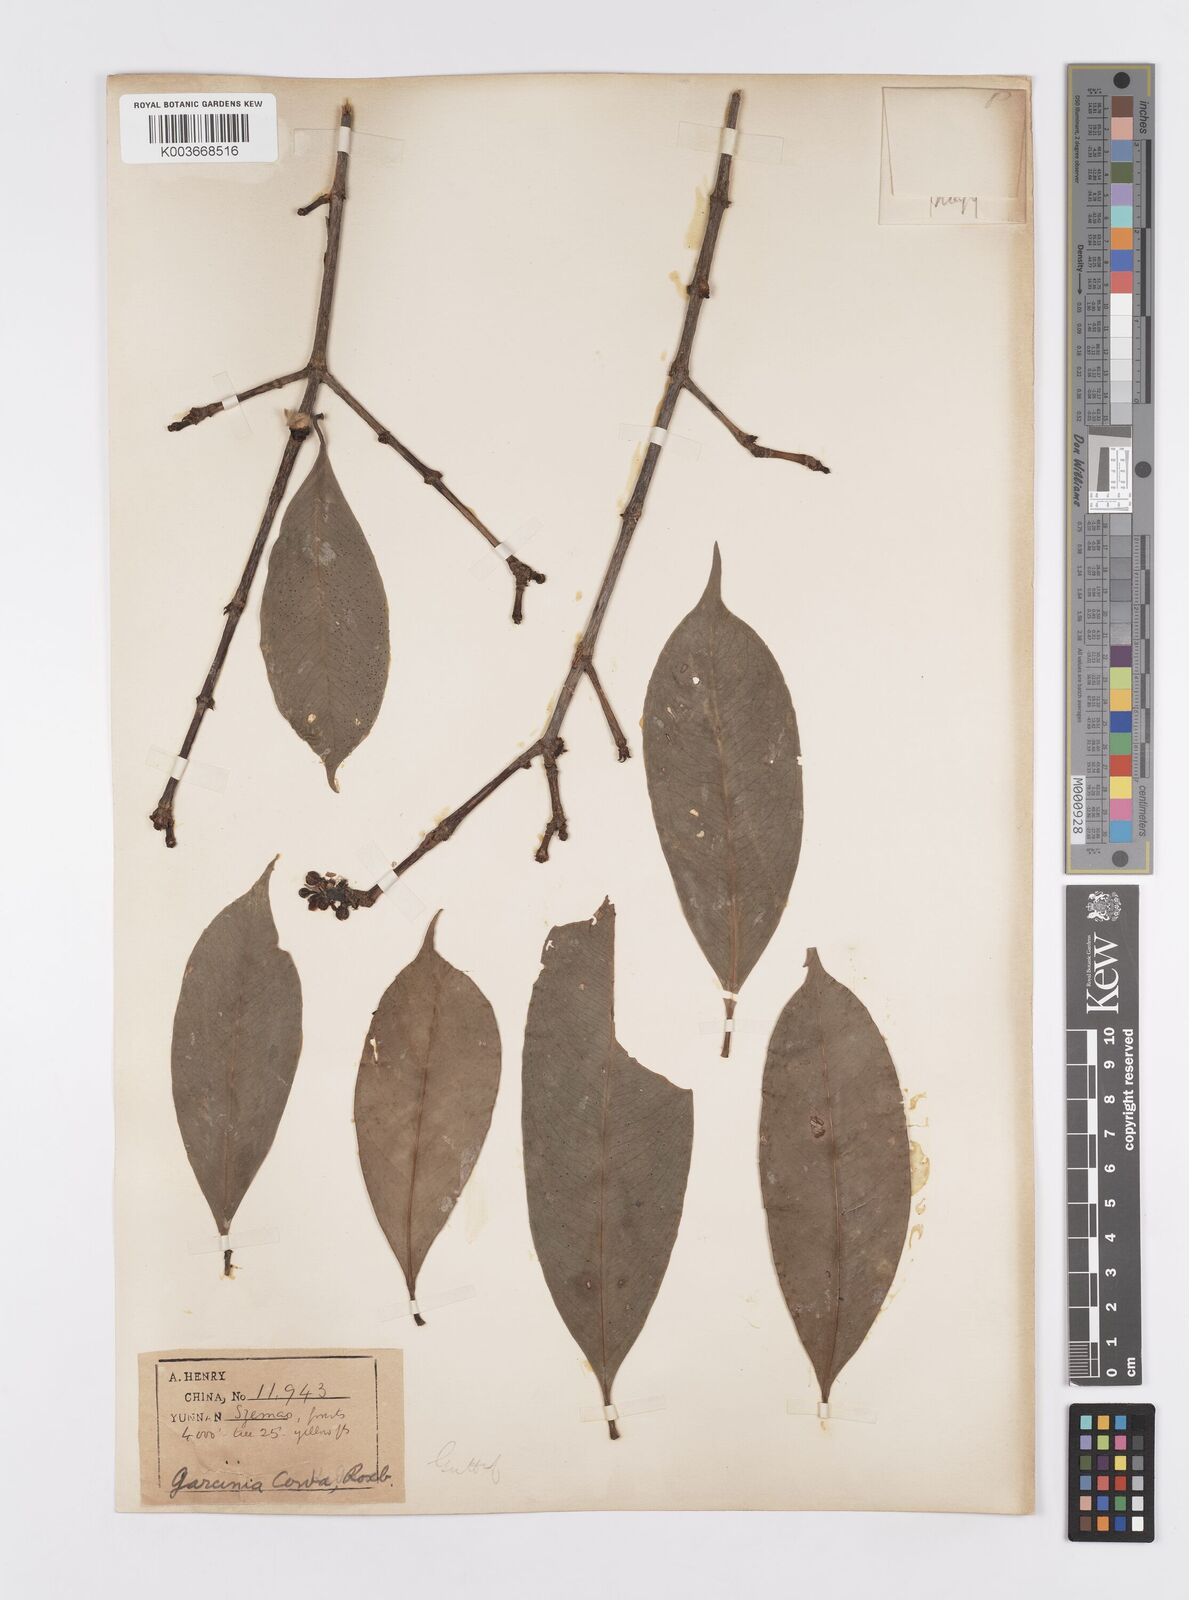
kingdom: Plantae
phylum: Tracheophyta
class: Magnoliopsida
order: Malpighiales
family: Clusiaceae
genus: Garcinia
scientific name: Garcinia cowa
